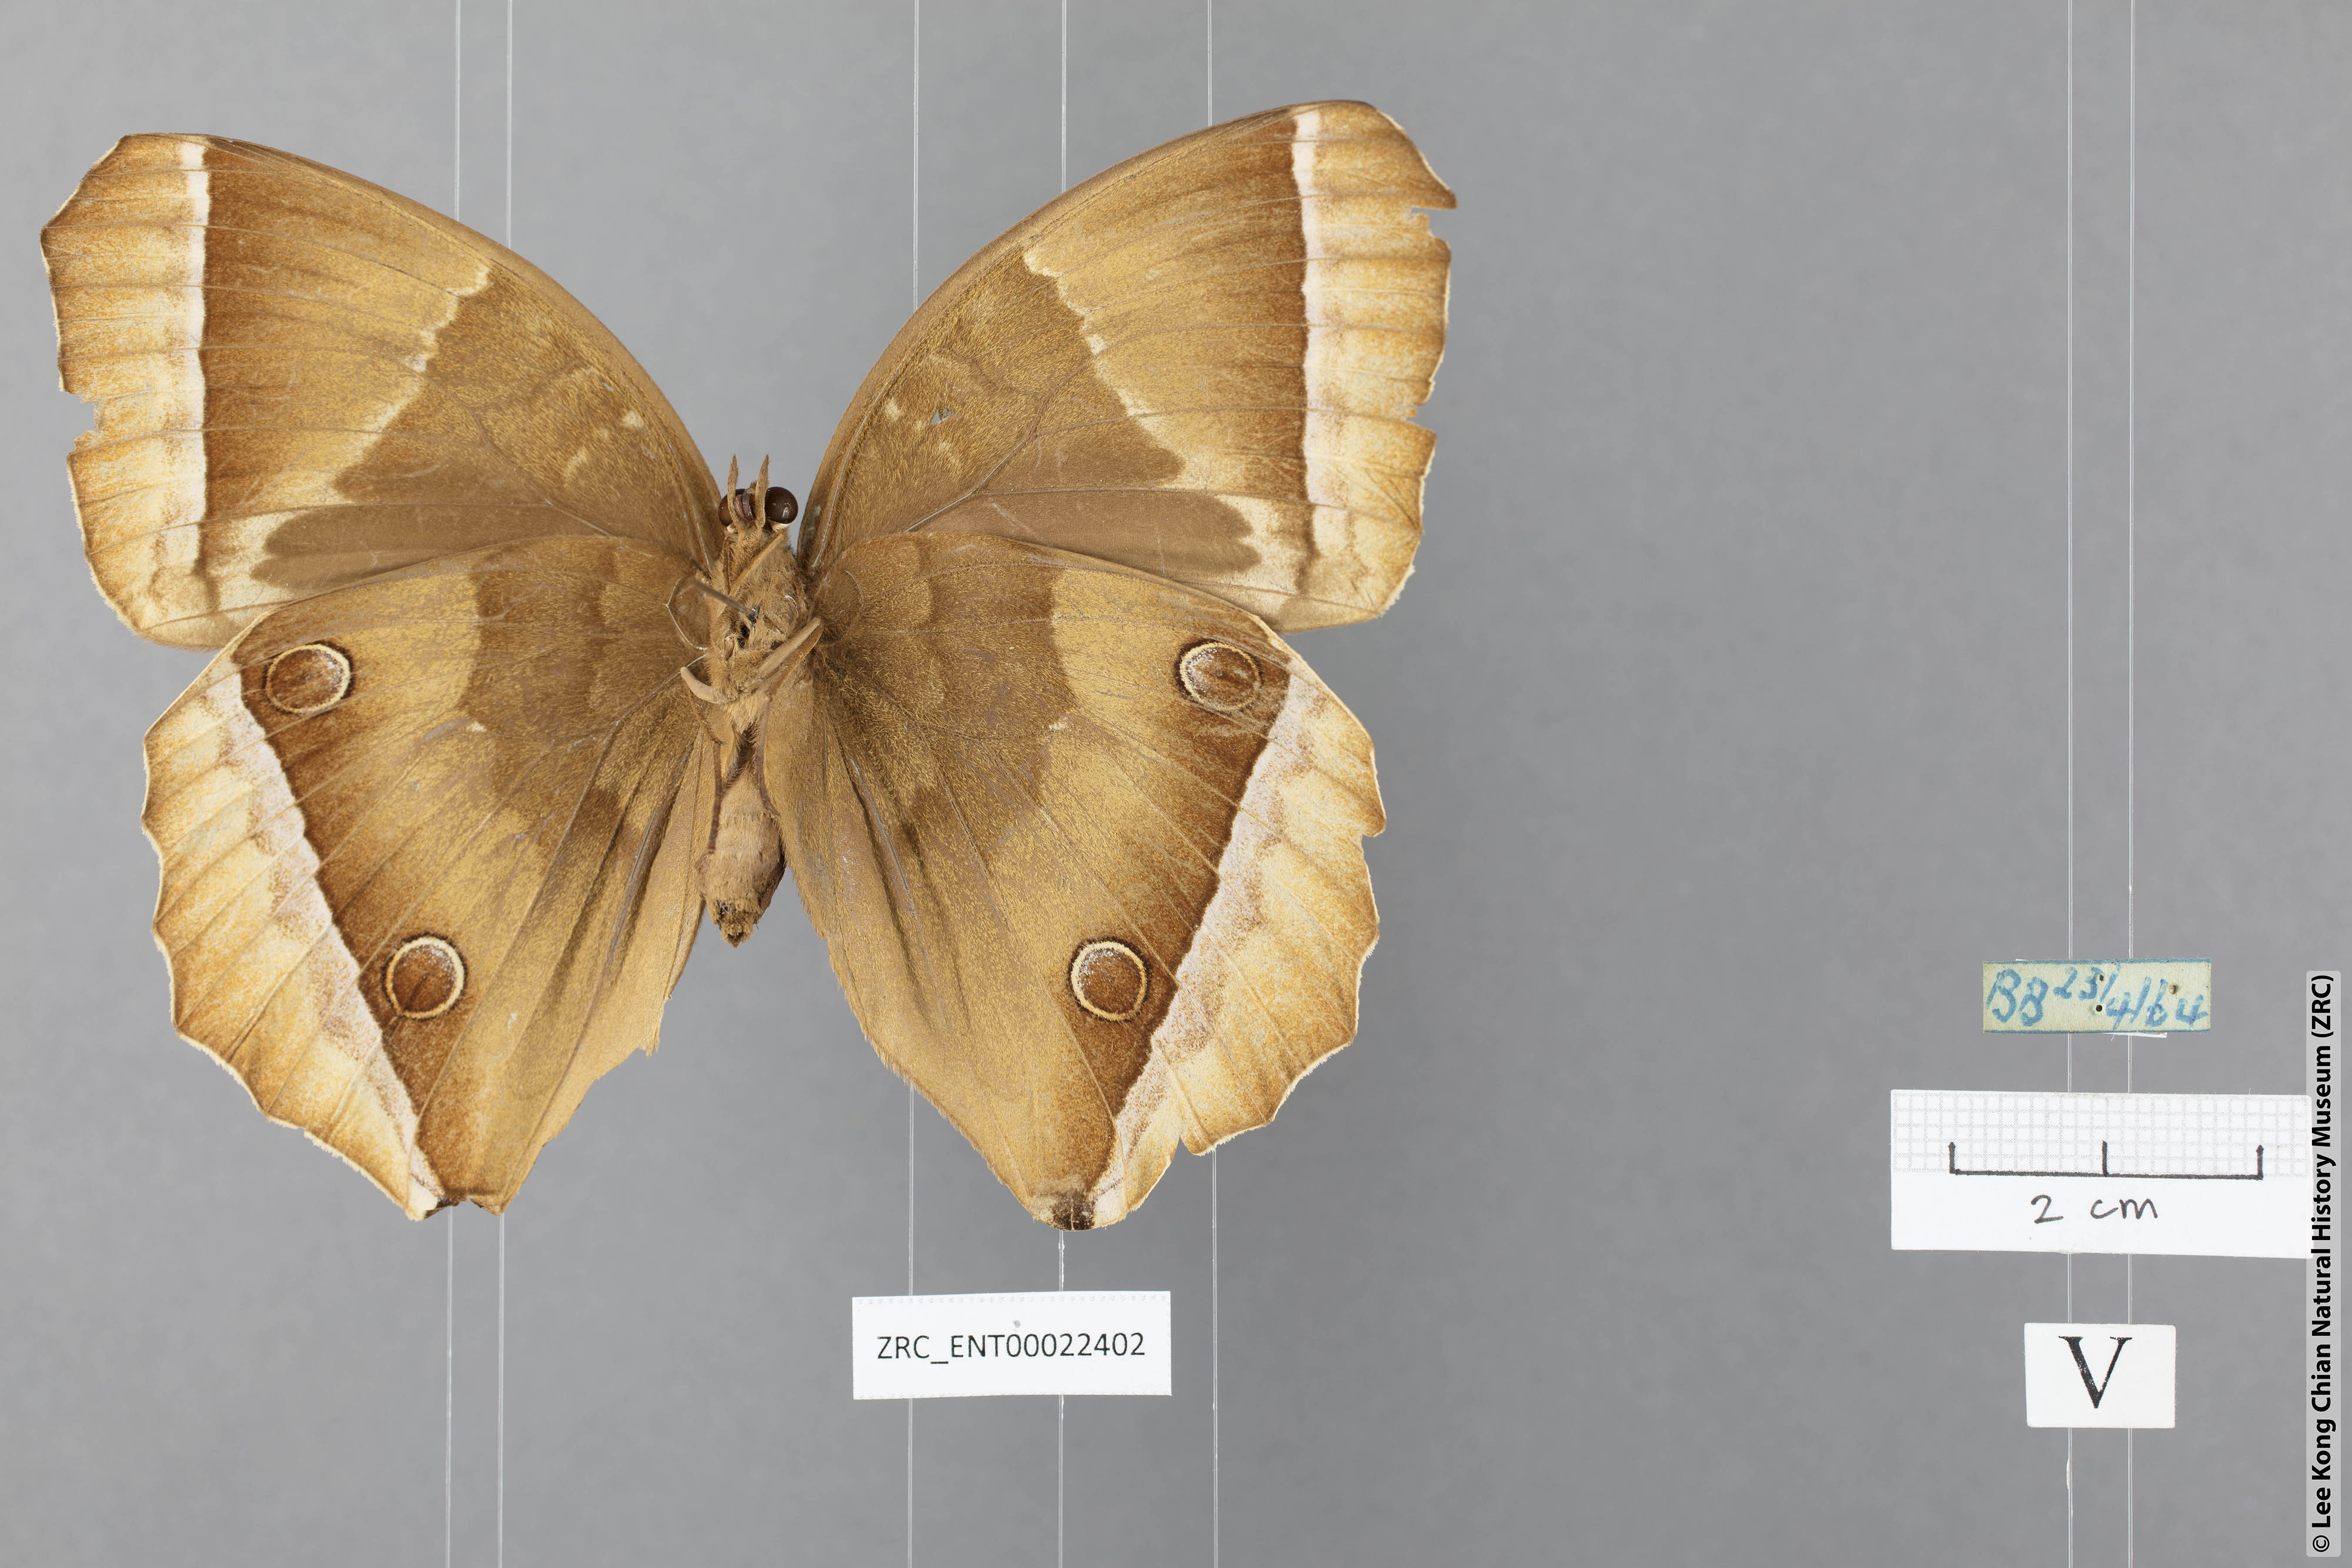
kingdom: Animalia
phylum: Arthropoda
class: Insecta
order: Lepidoptera
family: Nymphalidae
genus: Thaumantis
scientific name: Thaumantis noureddin
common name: Dark jungle glory
